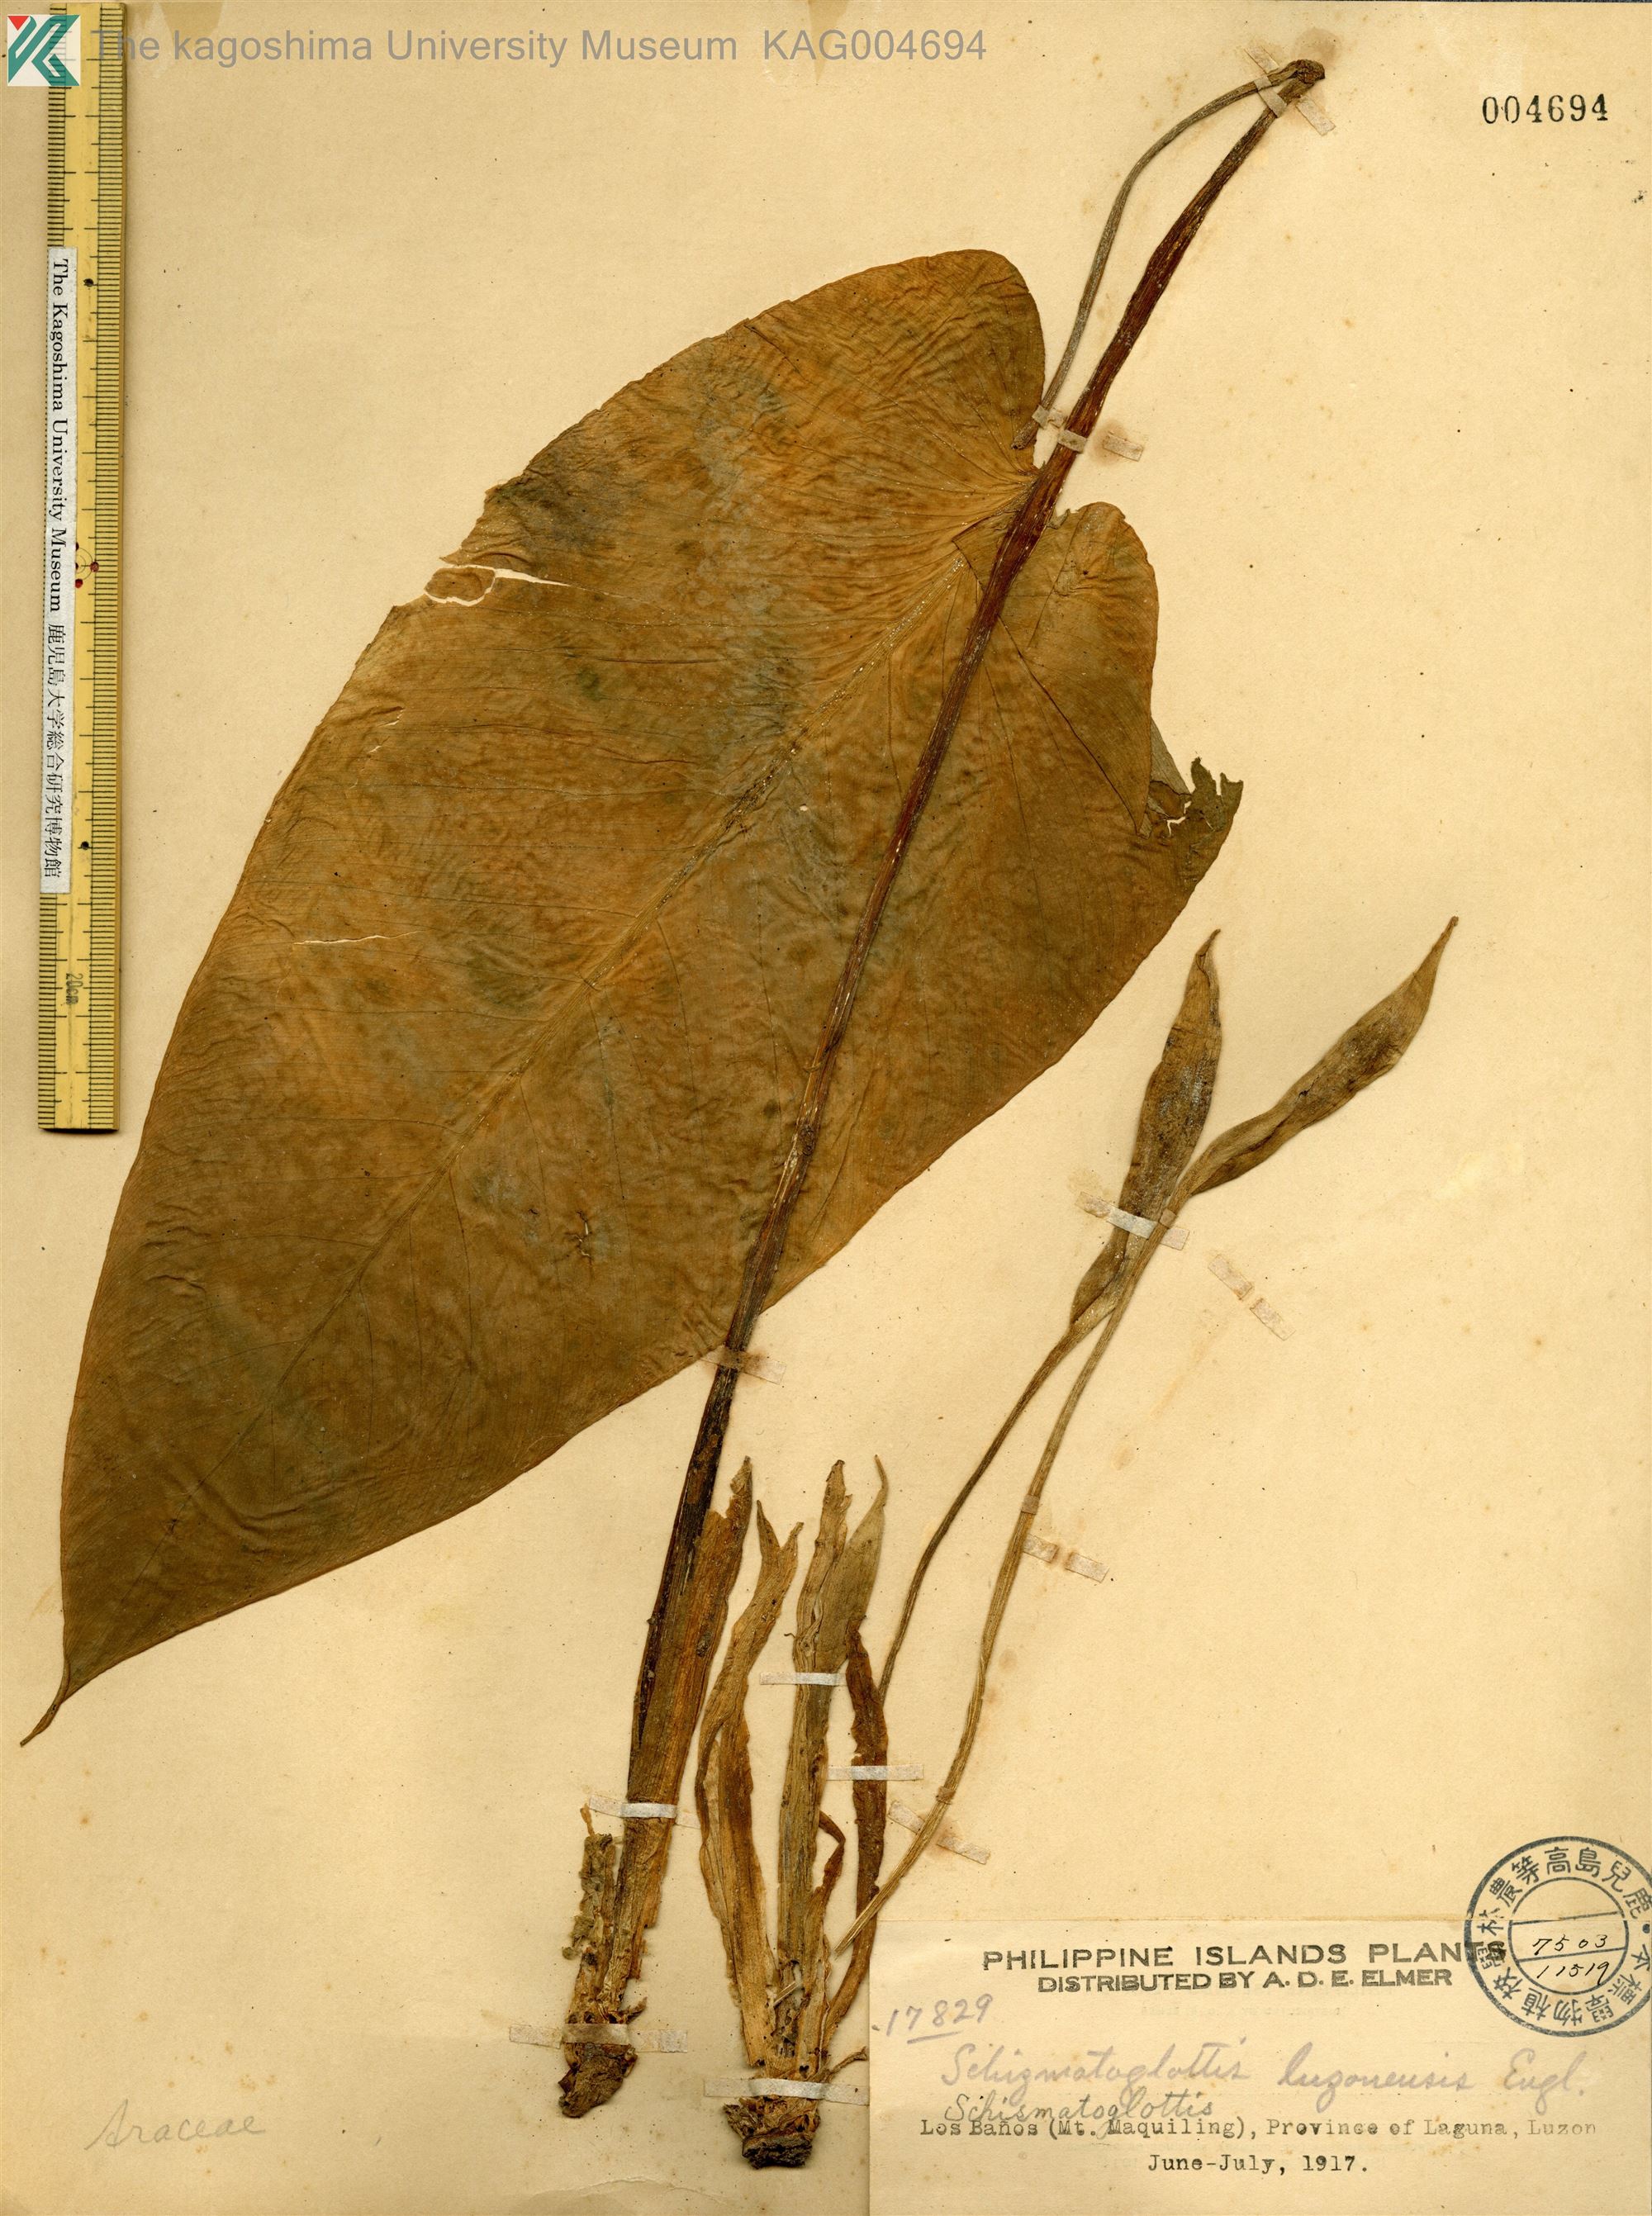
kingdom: Plantae
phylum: Tracheophyta
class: Liliopsida
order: Alismatales
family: Araceae
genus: Schismatoglottis
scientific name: Schismatoglottis luzonensis
